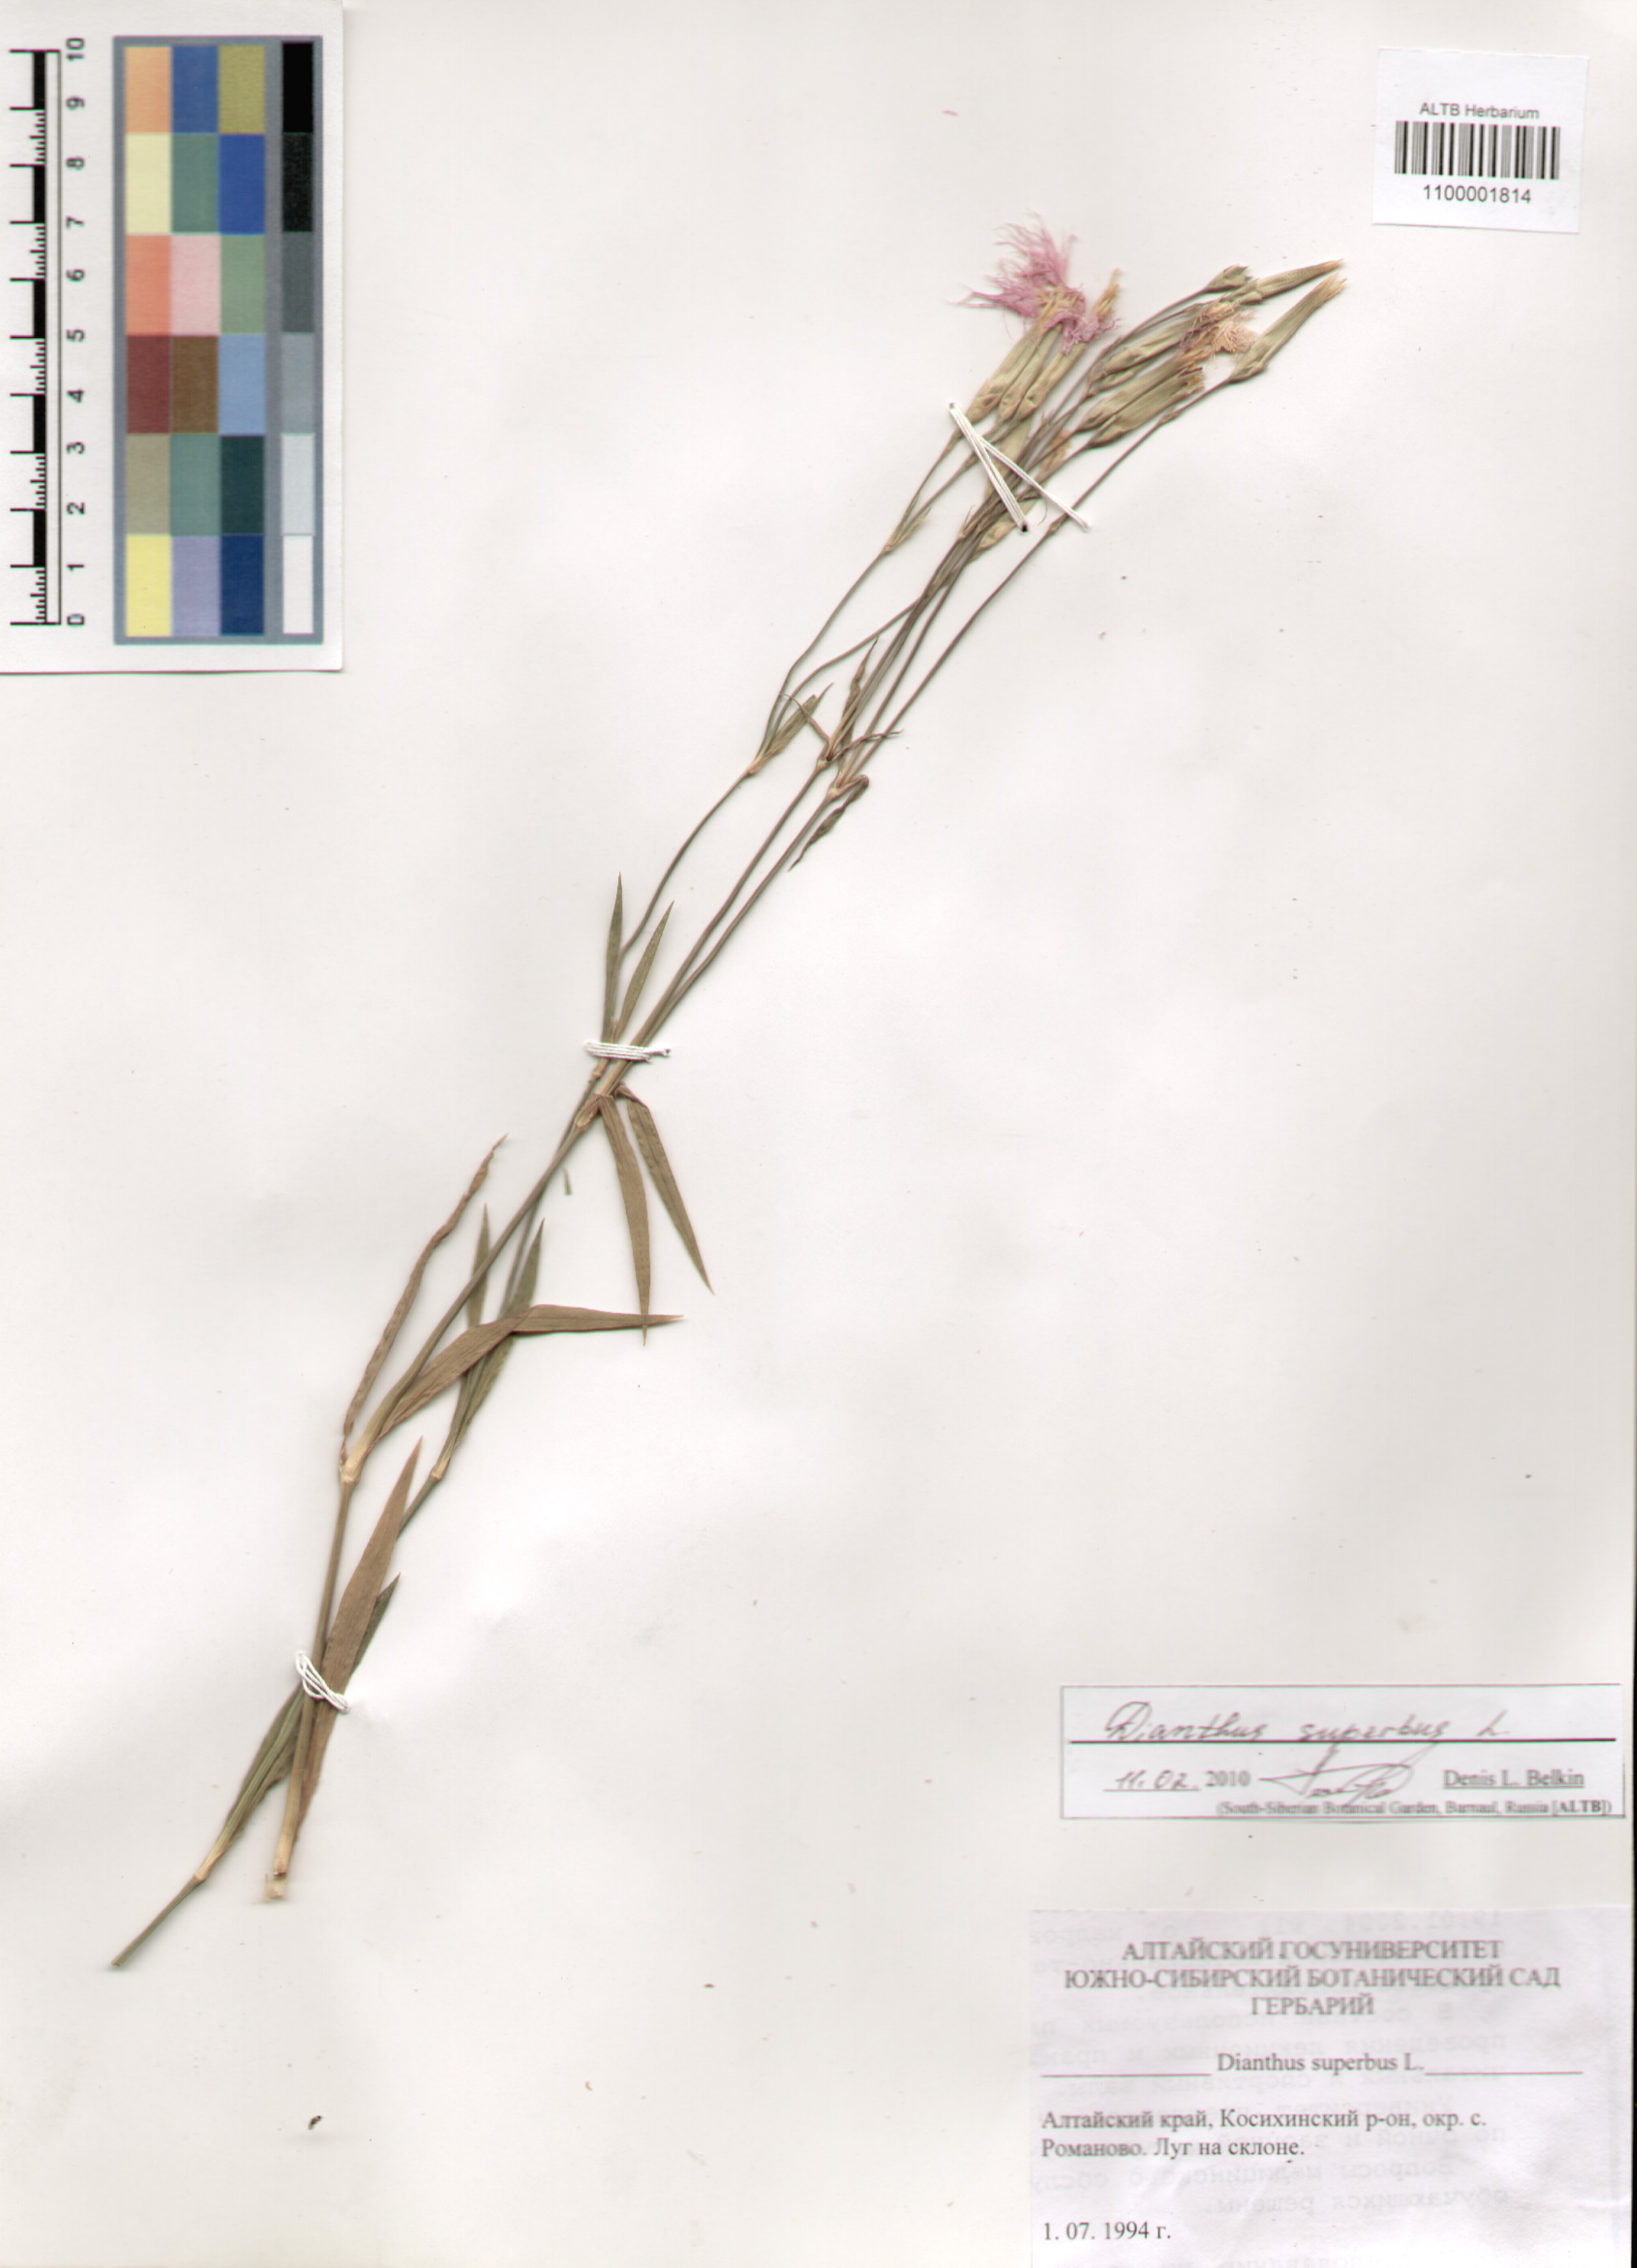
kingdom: Plantae
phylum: Tracheophyta
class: Magnoliopsida
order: Caryophyllales
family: Caryophyllaceae
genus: Dianthus
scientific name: Dianthus superbus
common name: Fringed pink
